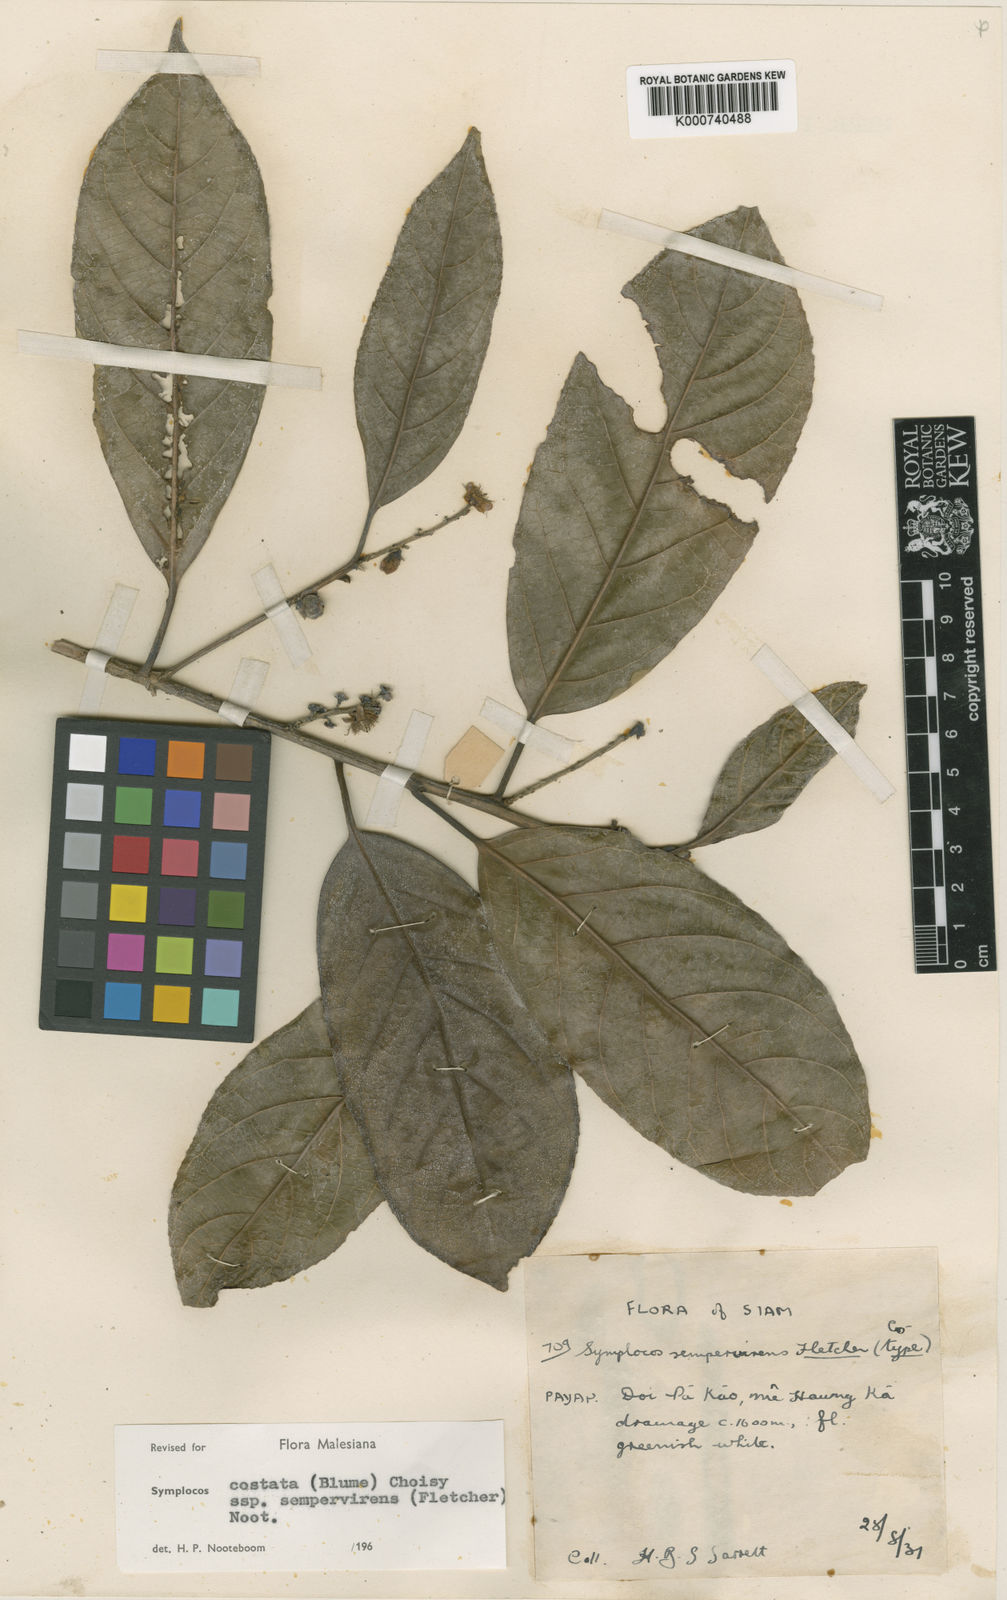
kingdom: Plantae
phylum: Tracheophyta
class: Magnoliopsida
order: Ericales
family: Symplocaceae
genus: Symplocos
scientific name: Symplocos costata
